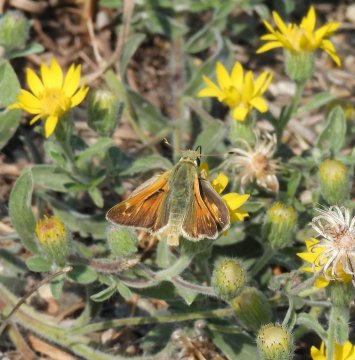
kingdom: Animalia
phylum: Arthropoda
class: Insecta
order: Lepidoptera
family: Hesperiidae
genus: Hesperia
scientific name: Hesperia nevada
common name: Nevada Skipper
